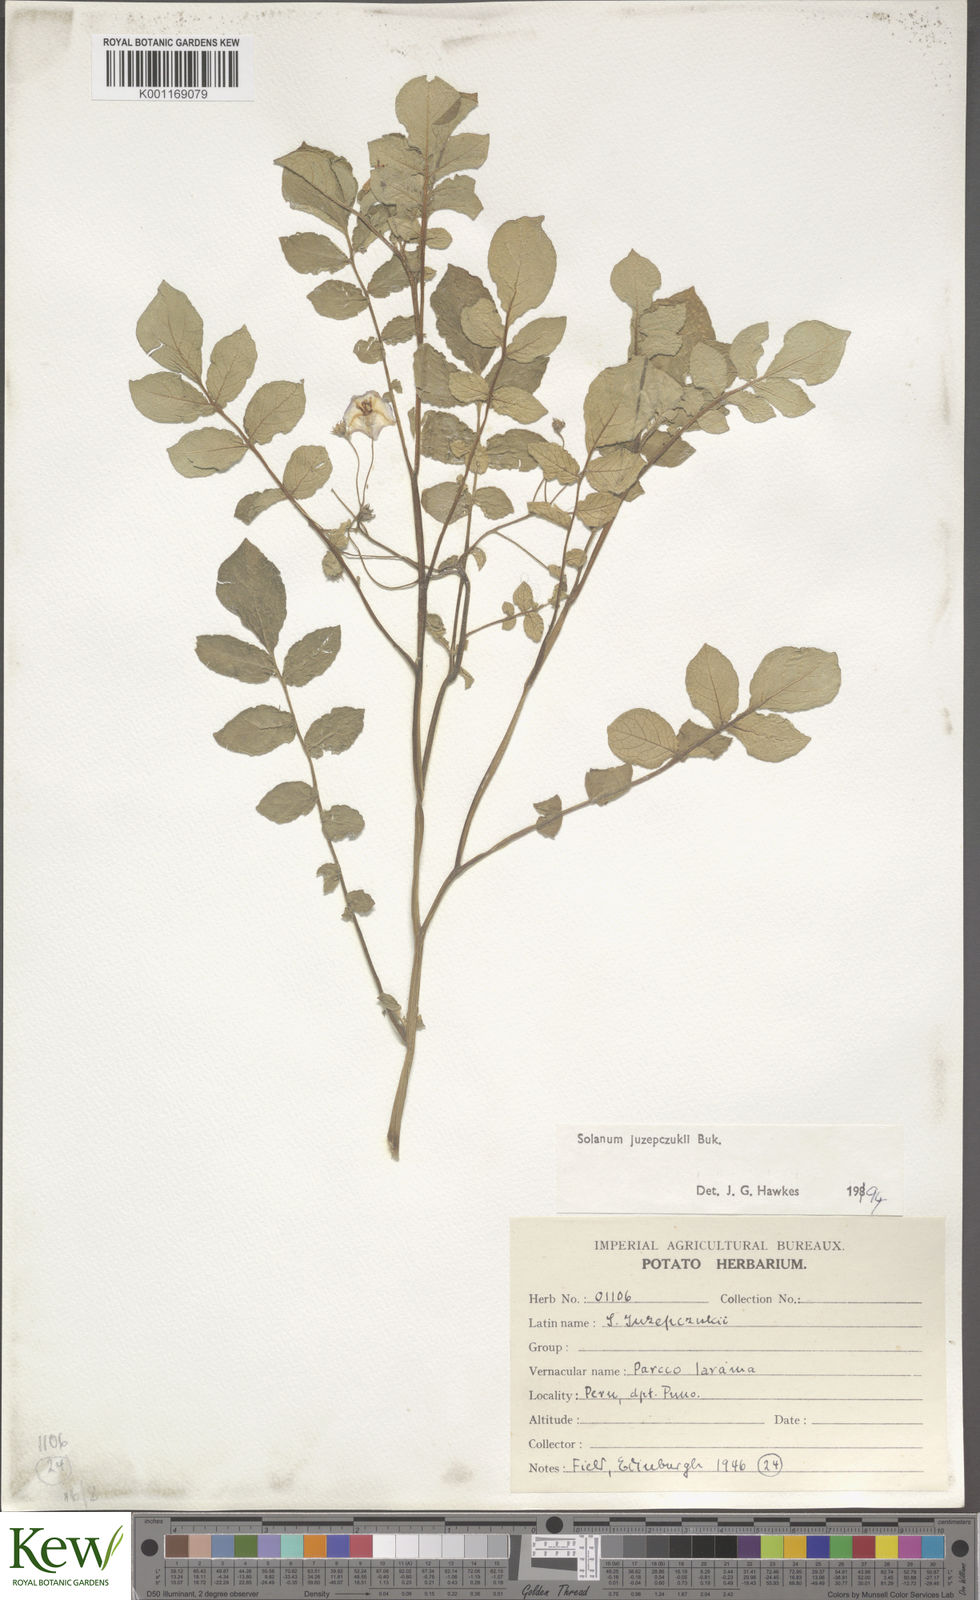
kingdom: Plantae
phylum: Tracheophyta
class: Magnoliopsida
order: Solanales
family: Solanaceae
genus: Solanum
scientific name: Solanum juzepczukii
